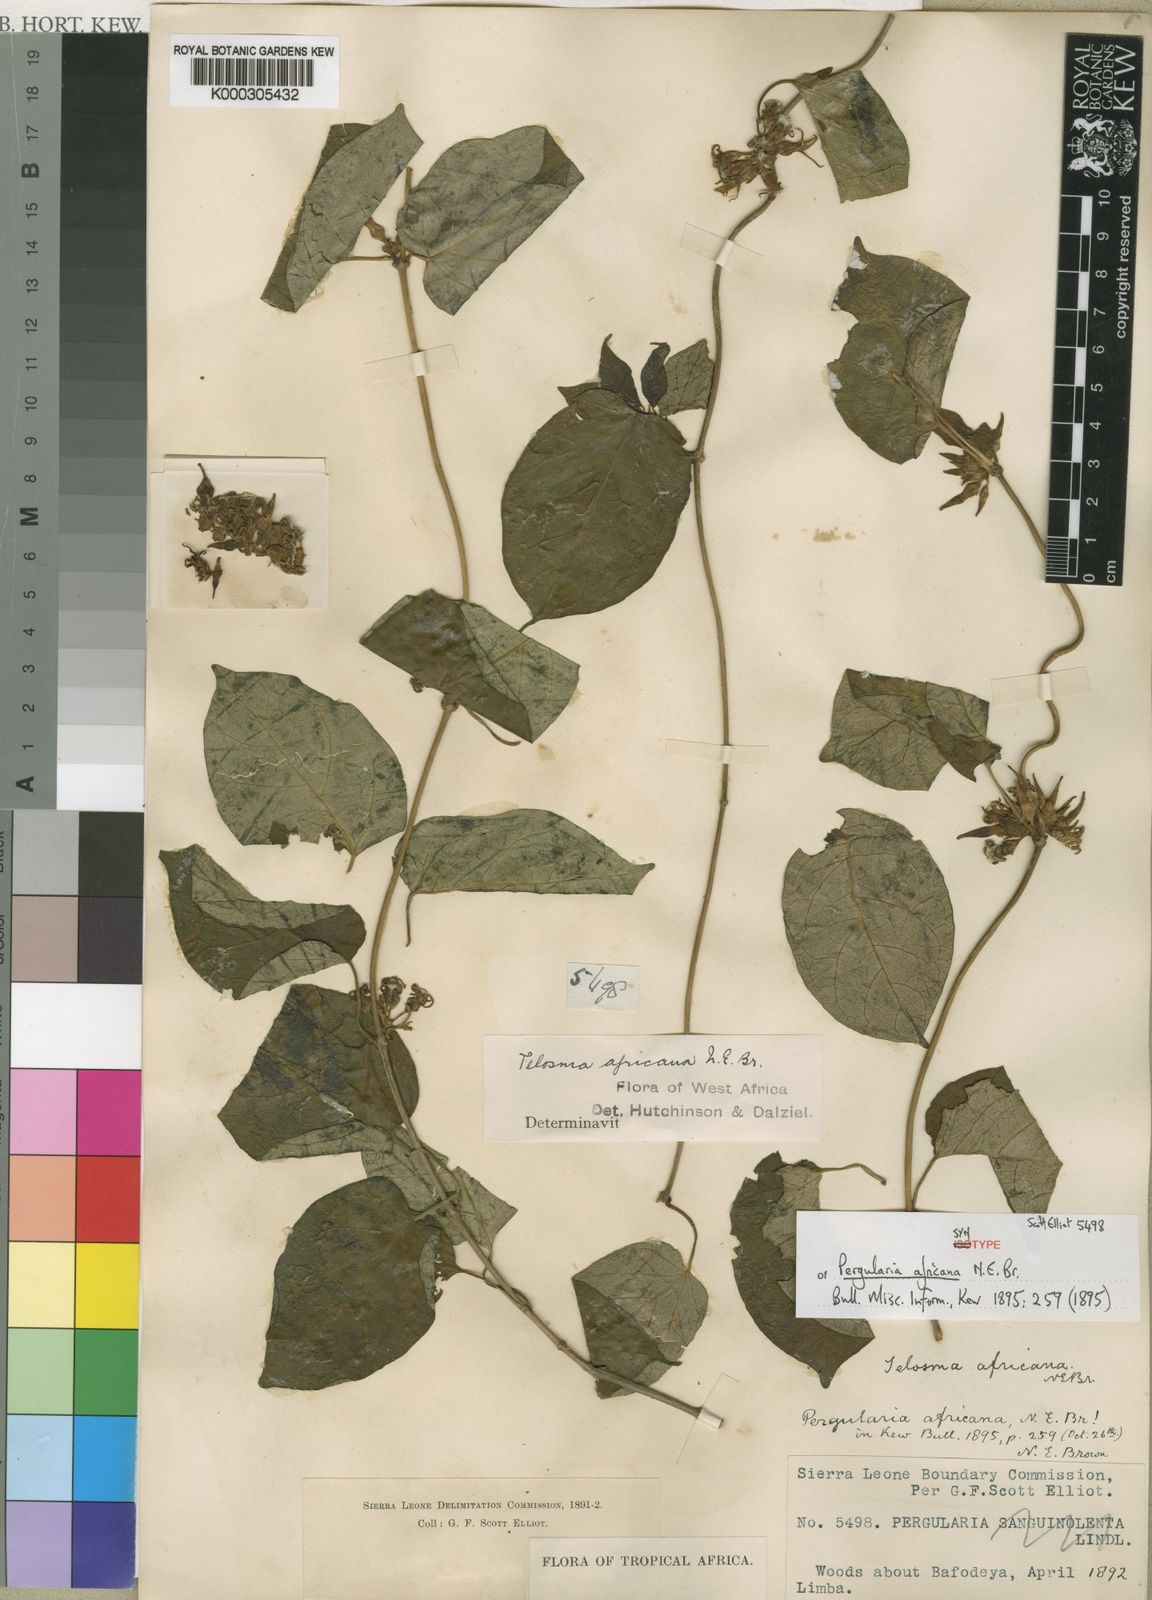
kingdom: Plantae
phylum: Tracheophyta
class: Magnoliopsida
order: Gentianales
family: Apocynaceae
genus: Telosma
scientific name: Telosma africana
